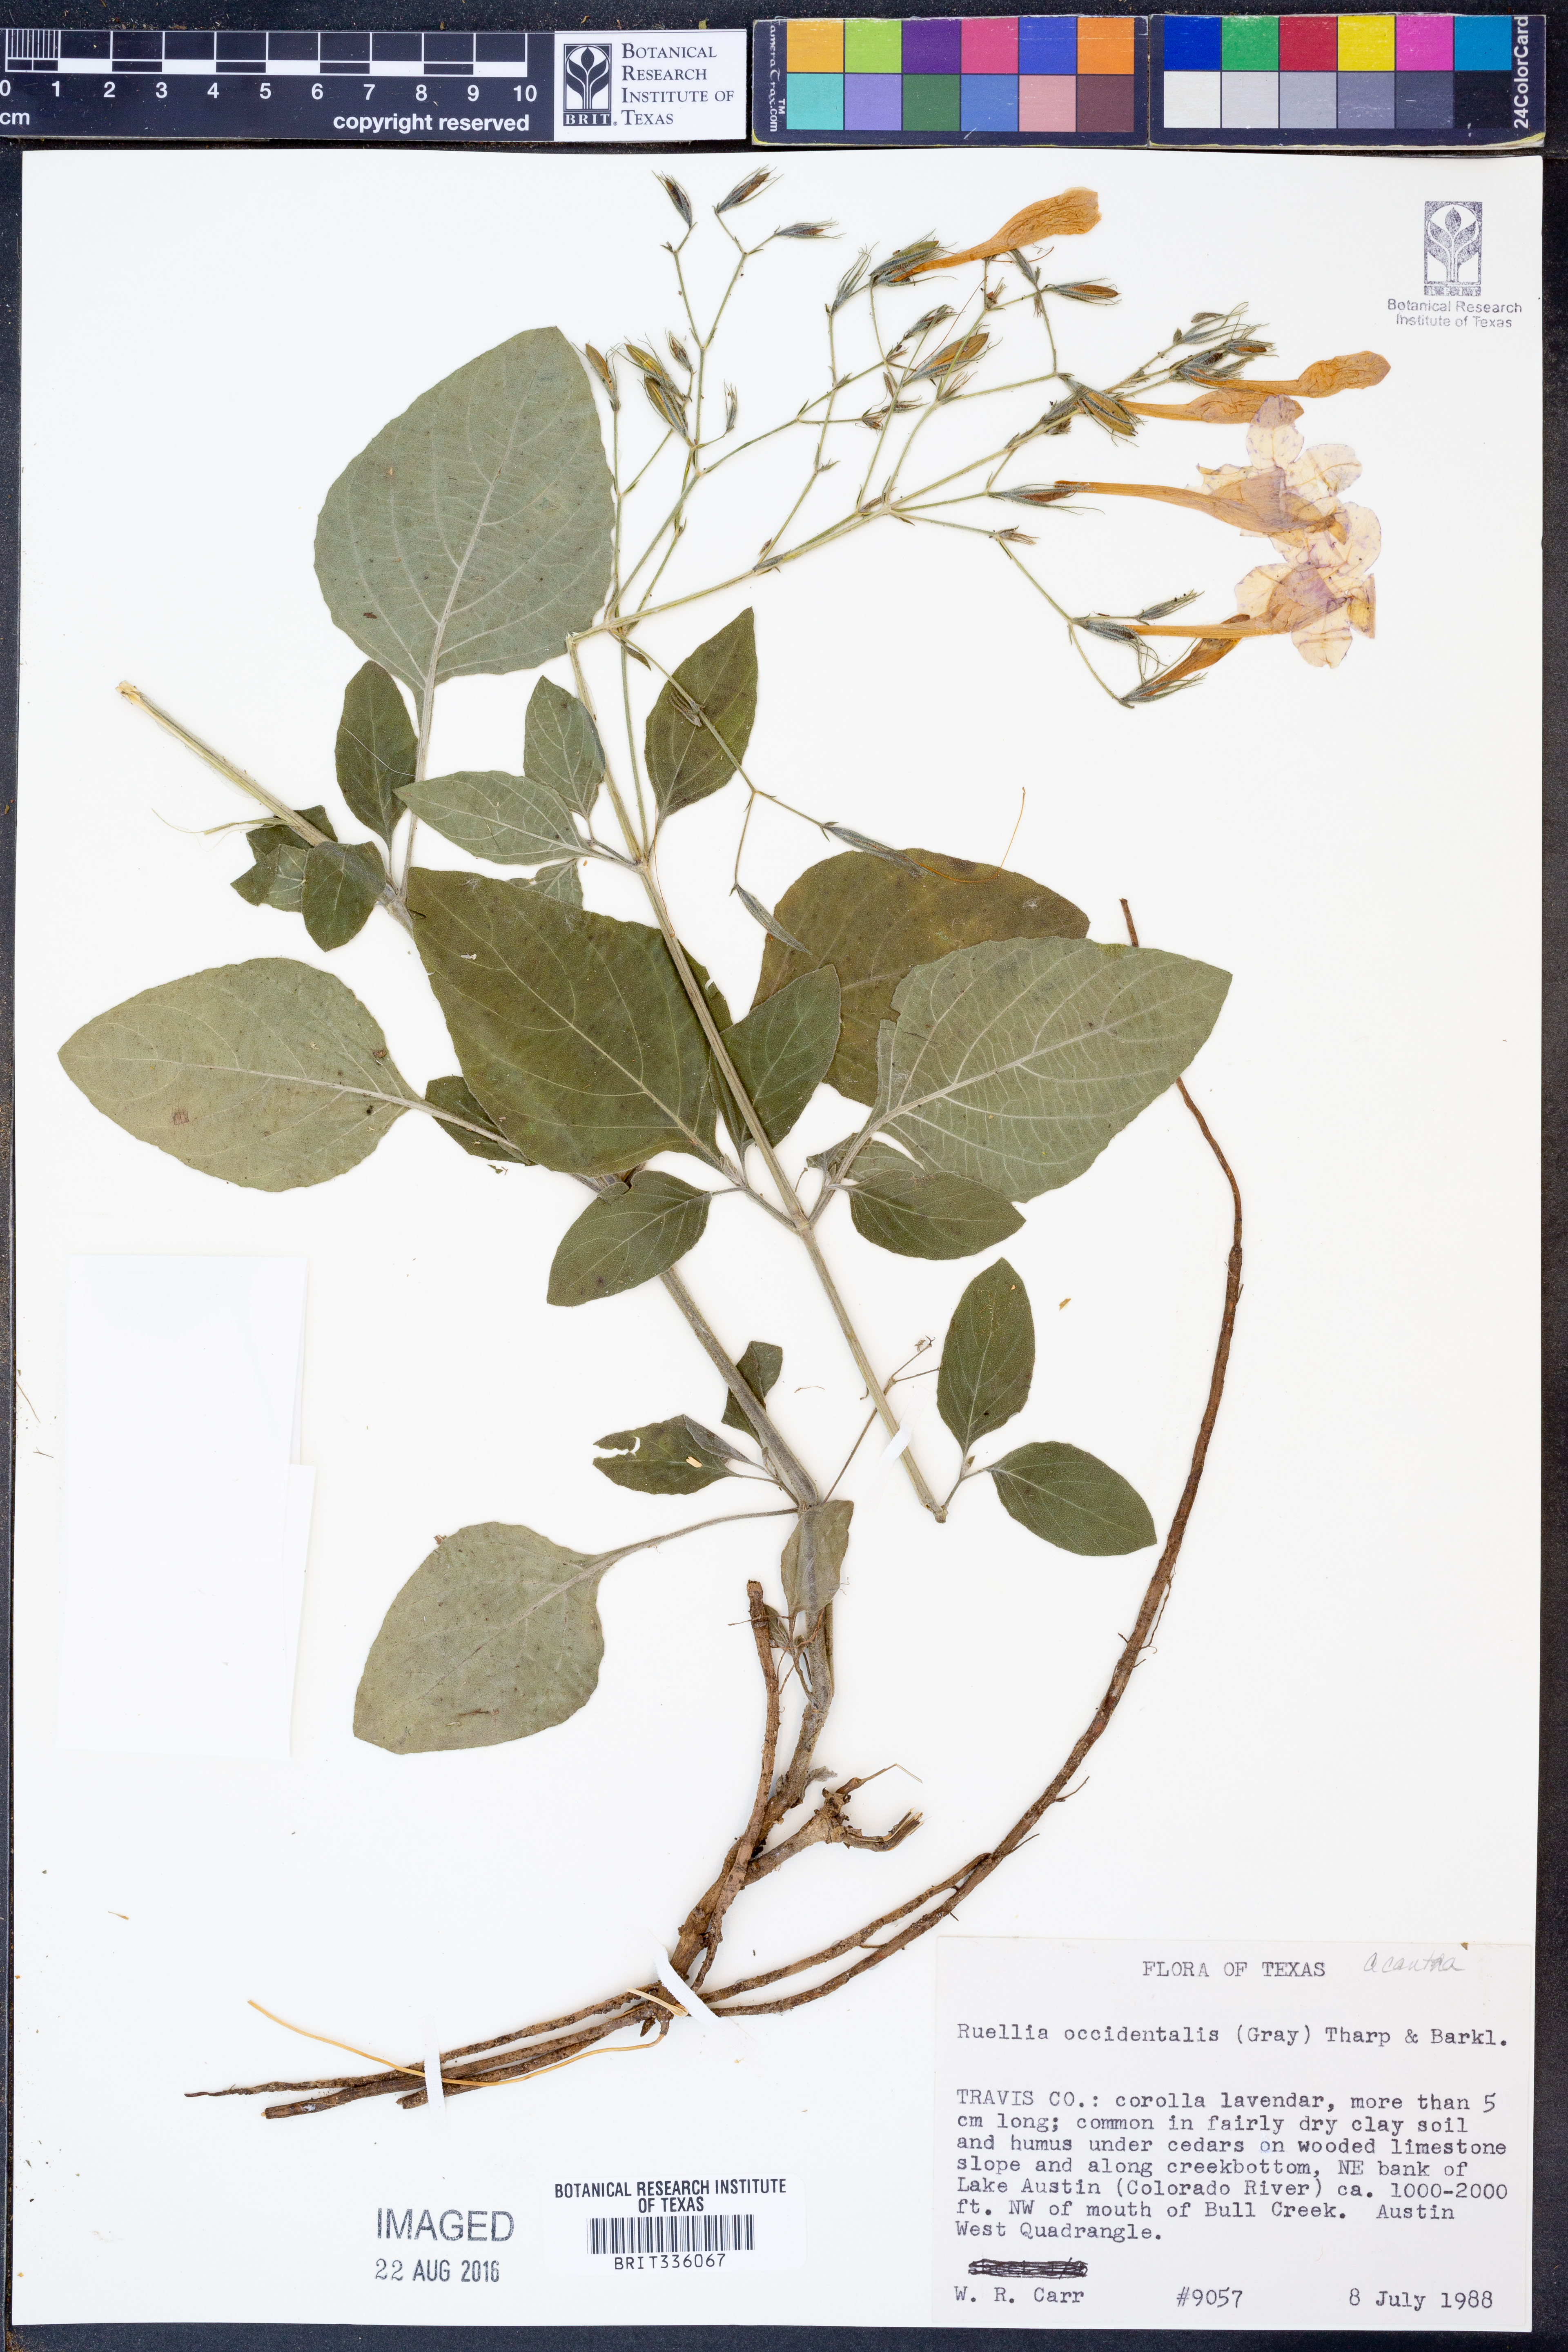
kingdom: Plantae
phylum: Tracheophyta
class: Magnoliopsida
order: Lamiales
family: Acanthaceae
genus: Ruellia
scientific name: Ruellia ciliatiflora
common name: Hairyflower wild petunia
